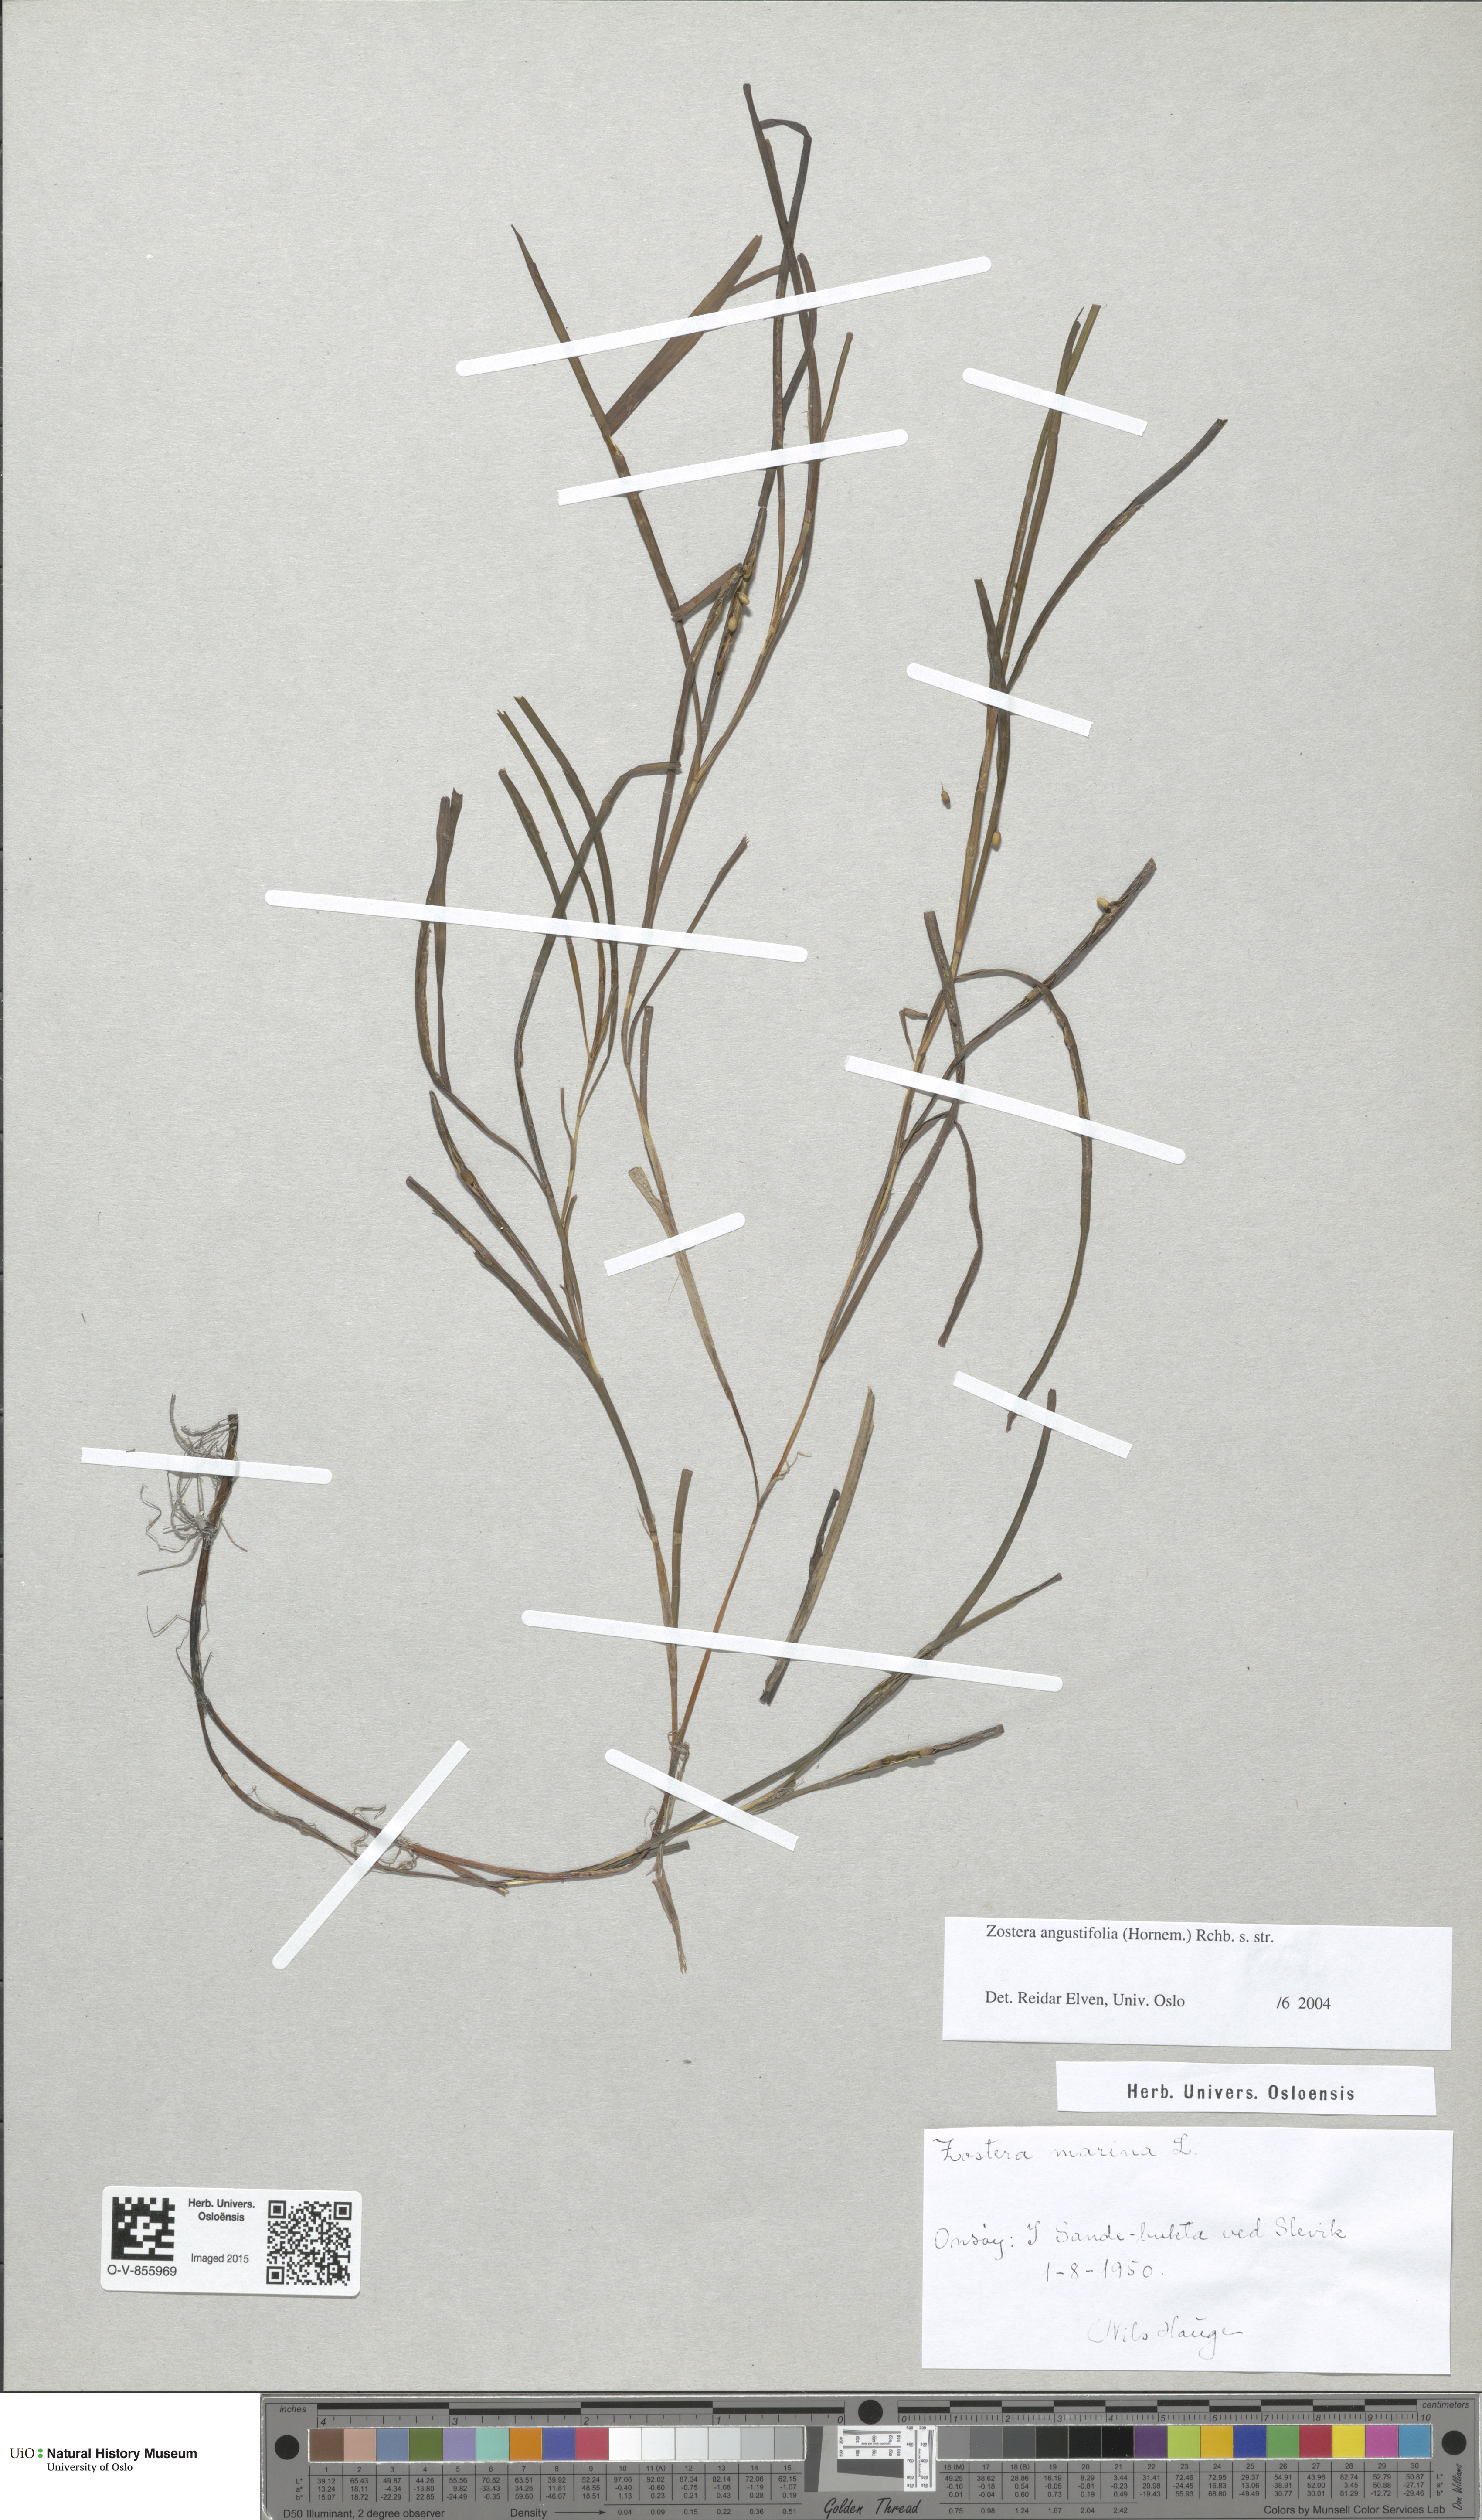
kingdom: Plantae
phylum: Tracheophyta
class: Liliopsida
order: Alismatales
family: Zosteraceae
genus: Zostera
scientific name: Zostera angustifolia
